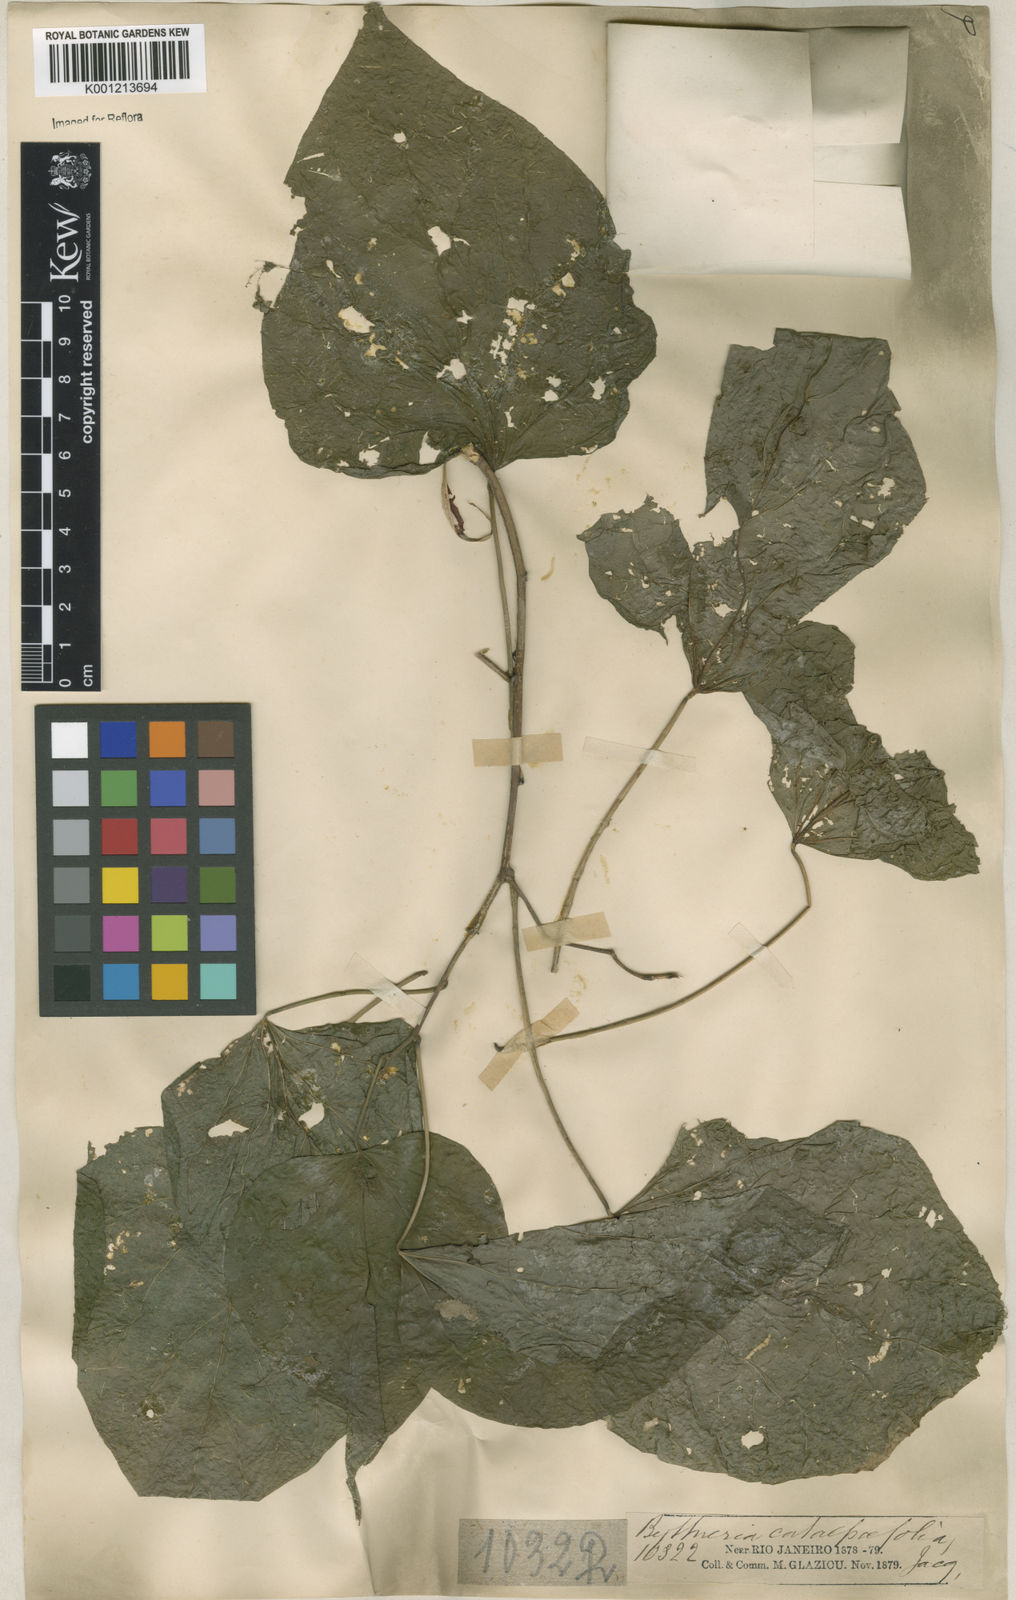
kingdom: Plantae
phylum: Tracheophyta
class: Magnoliopsida
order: Malvales
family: Malvaceae
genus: Byttneria
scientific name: Byttneria catalpifolia
